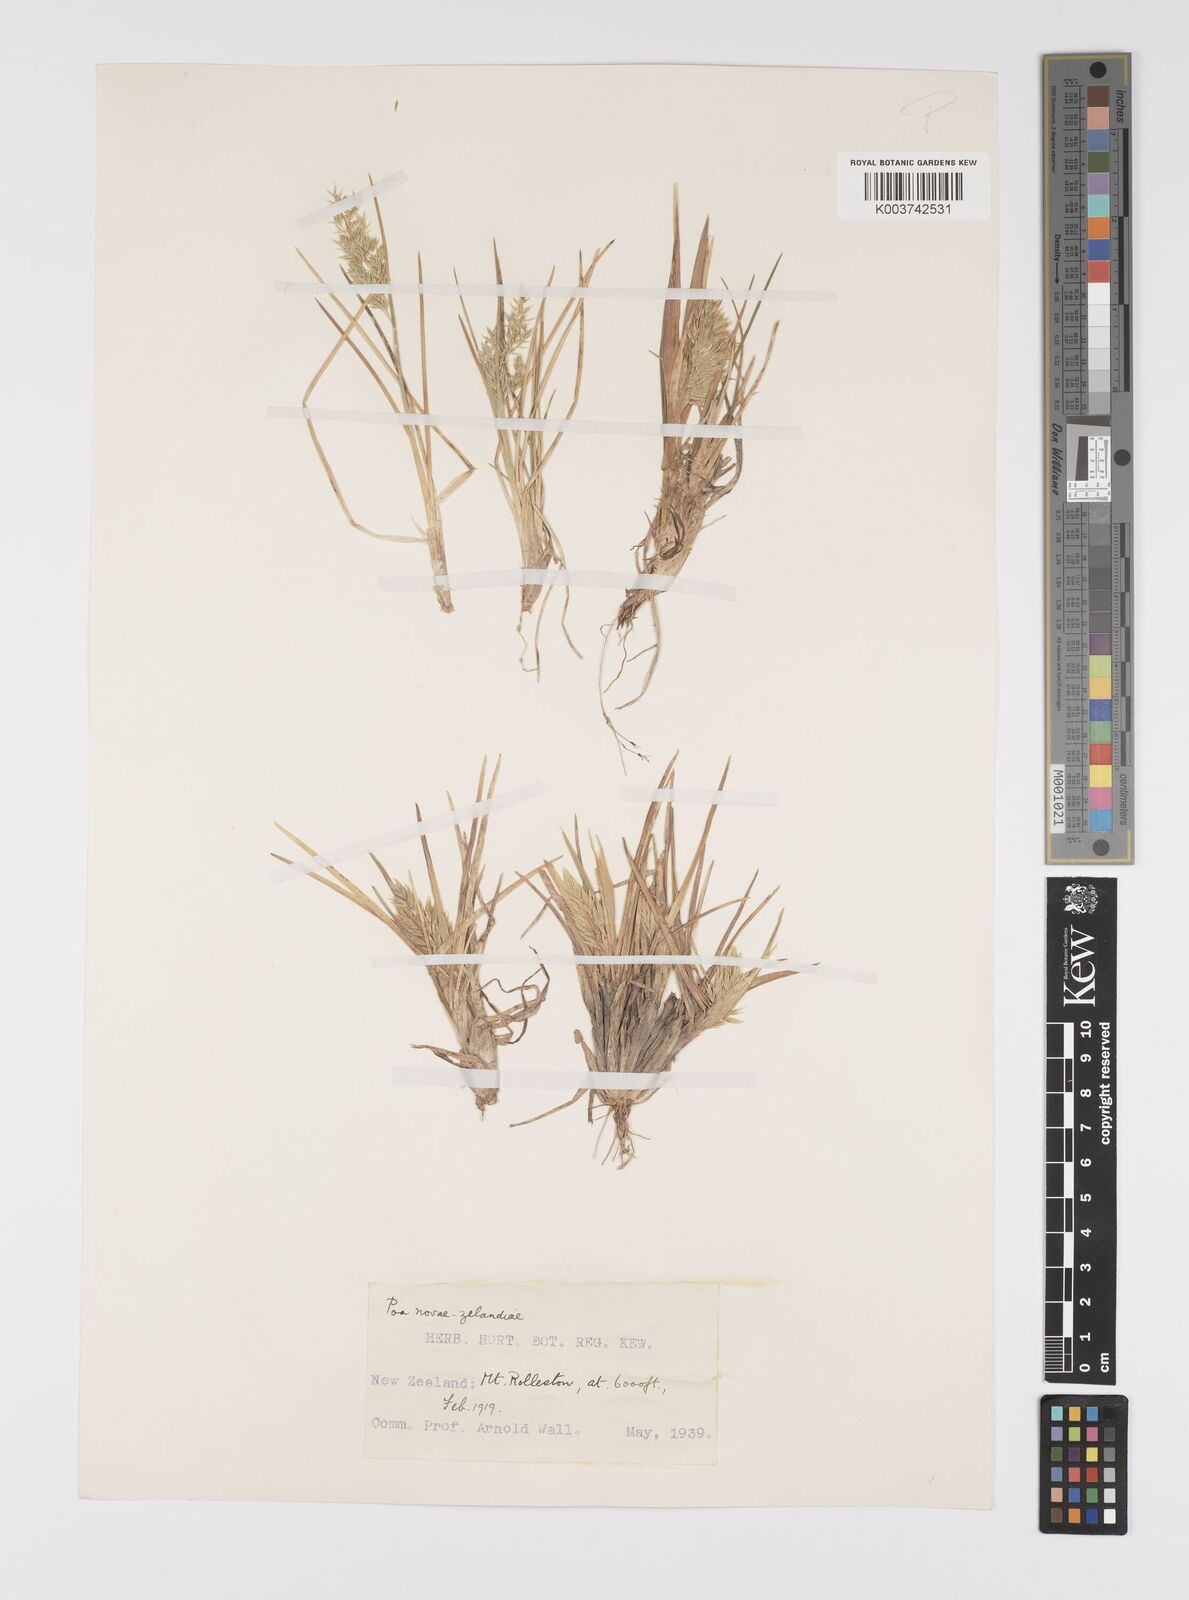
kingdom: Plantae
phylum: Tracheophyta
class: Liliopsida
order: Poales
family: Poaceae
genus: Poa
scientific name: Poa novae-zelandiae
